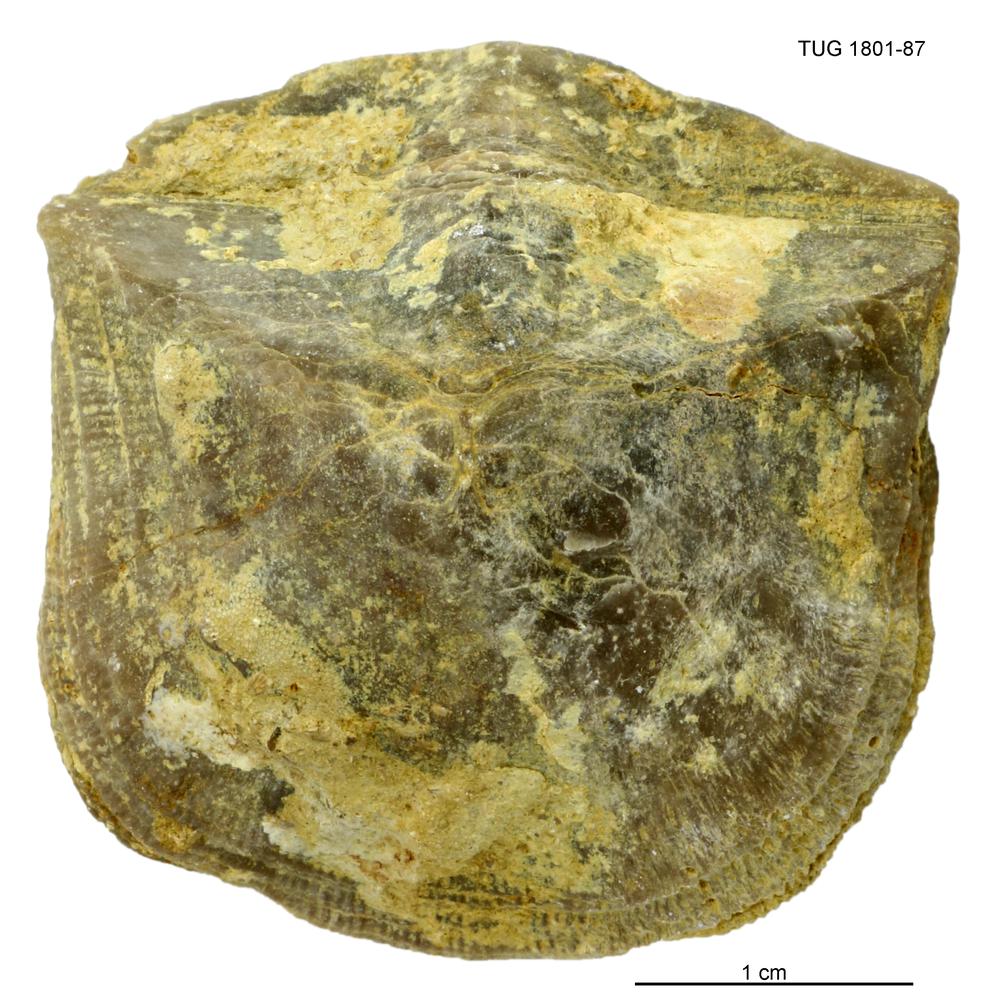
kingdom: Animalia
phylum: Brachiopoda
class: Rhynchonellata
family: Clitambonitidae
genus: Clinambon
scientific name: Clinambon anomalus
